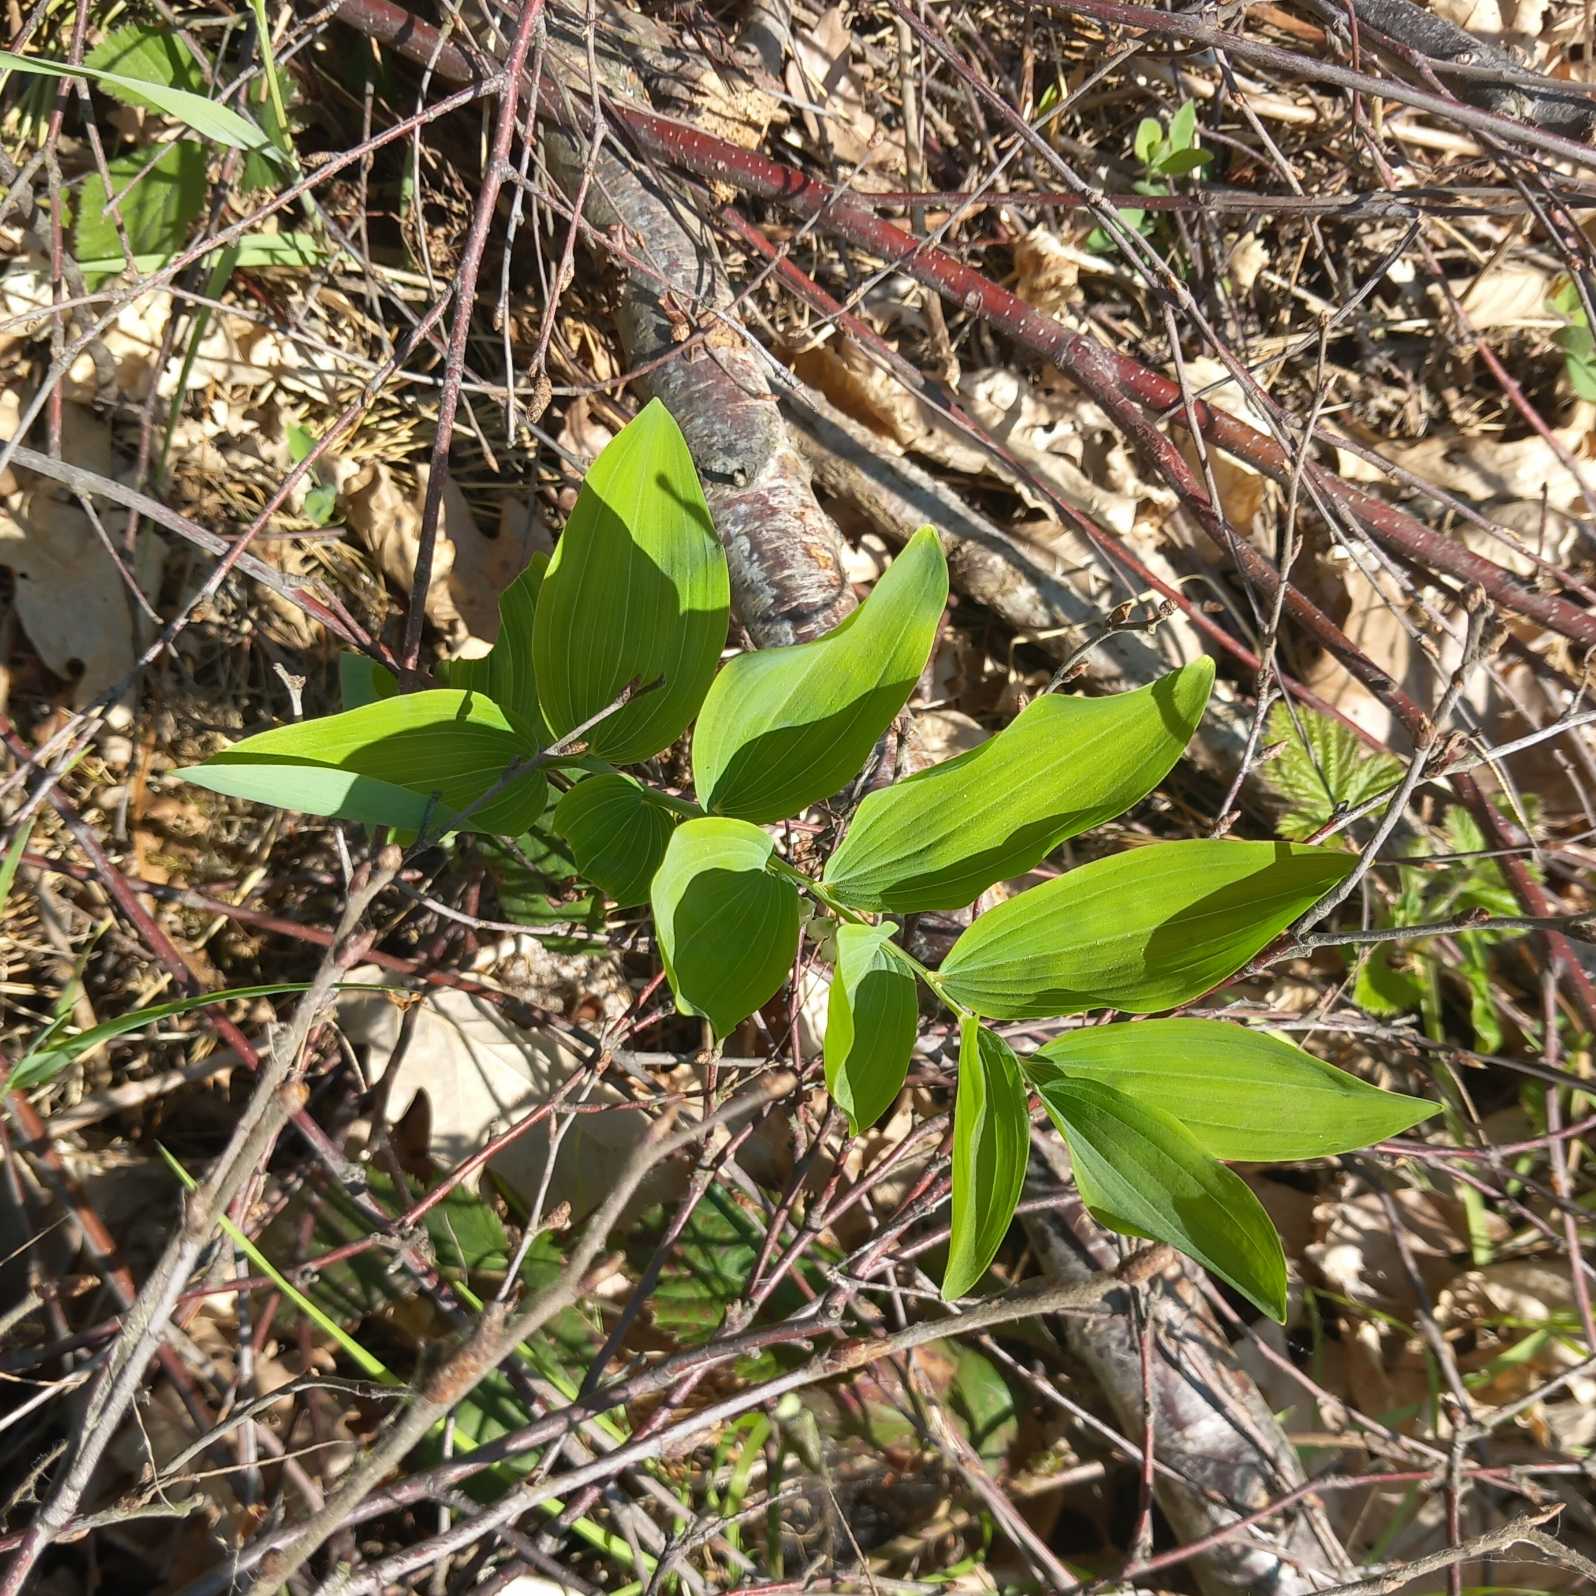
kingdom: Plantae
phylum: Tracheophyta
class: Liliopsida
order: Asparagales
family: Asparagaceae
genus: Polygonatum
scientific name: Polygonatum multiflorum
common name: Stor konval
